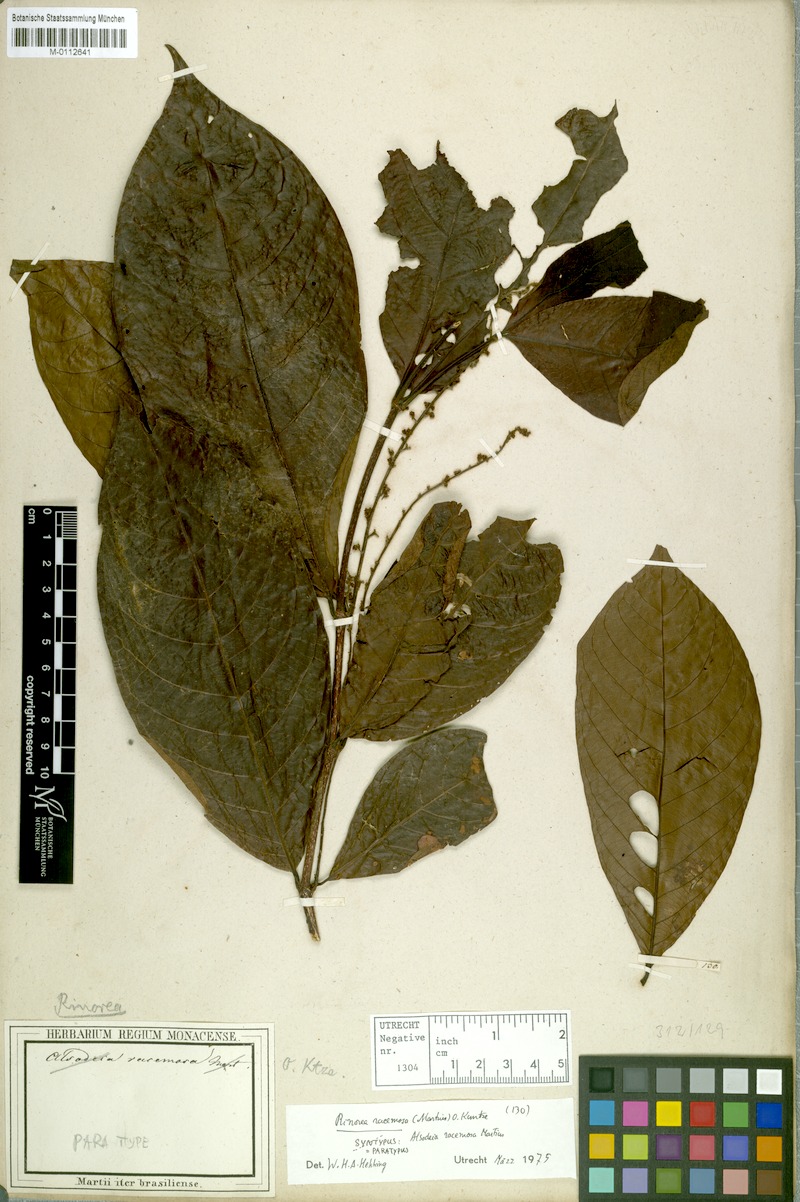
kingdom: Plantae
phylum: Tracheophyta
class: Magnoliopsida
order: Malpighiales
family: Violaceae
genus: Rinorea
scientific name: Rinorea racemosa
